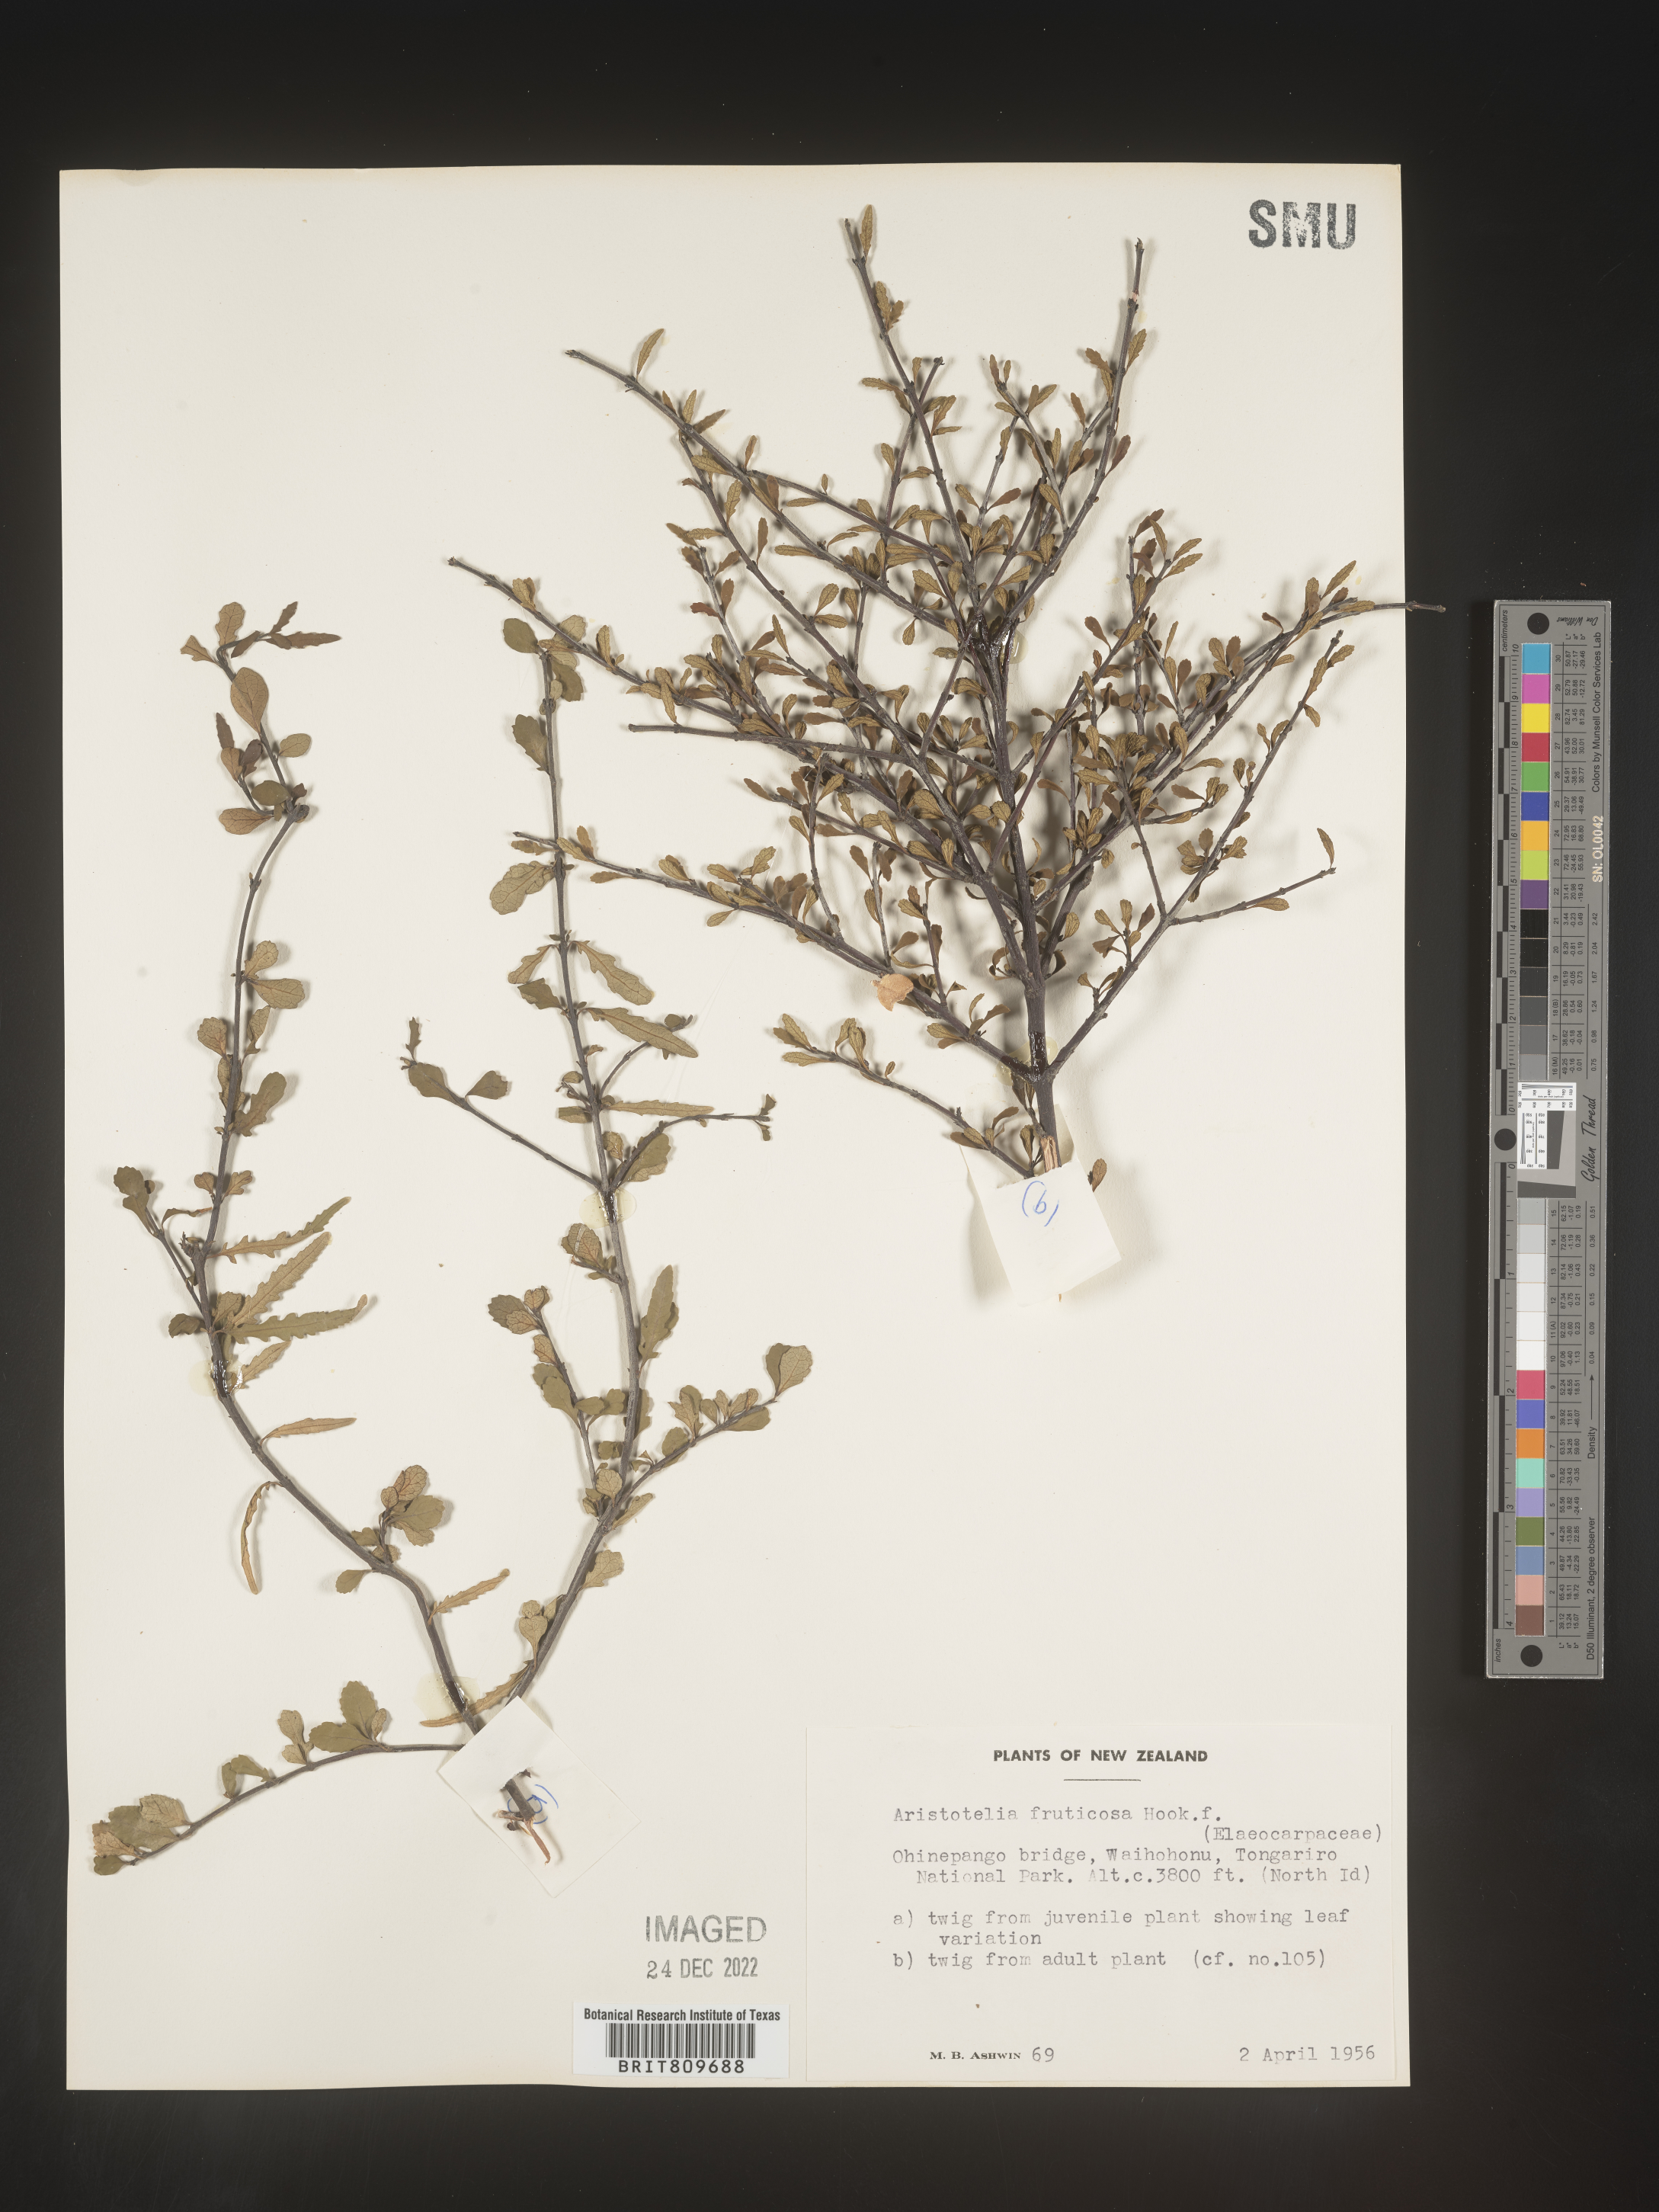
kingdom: Plantae
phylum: Tracheophyta
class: Magnoliopsida
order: Oxalidales
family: Elaeocarpaceae
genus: Aristotelia
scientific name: Aristotelia
